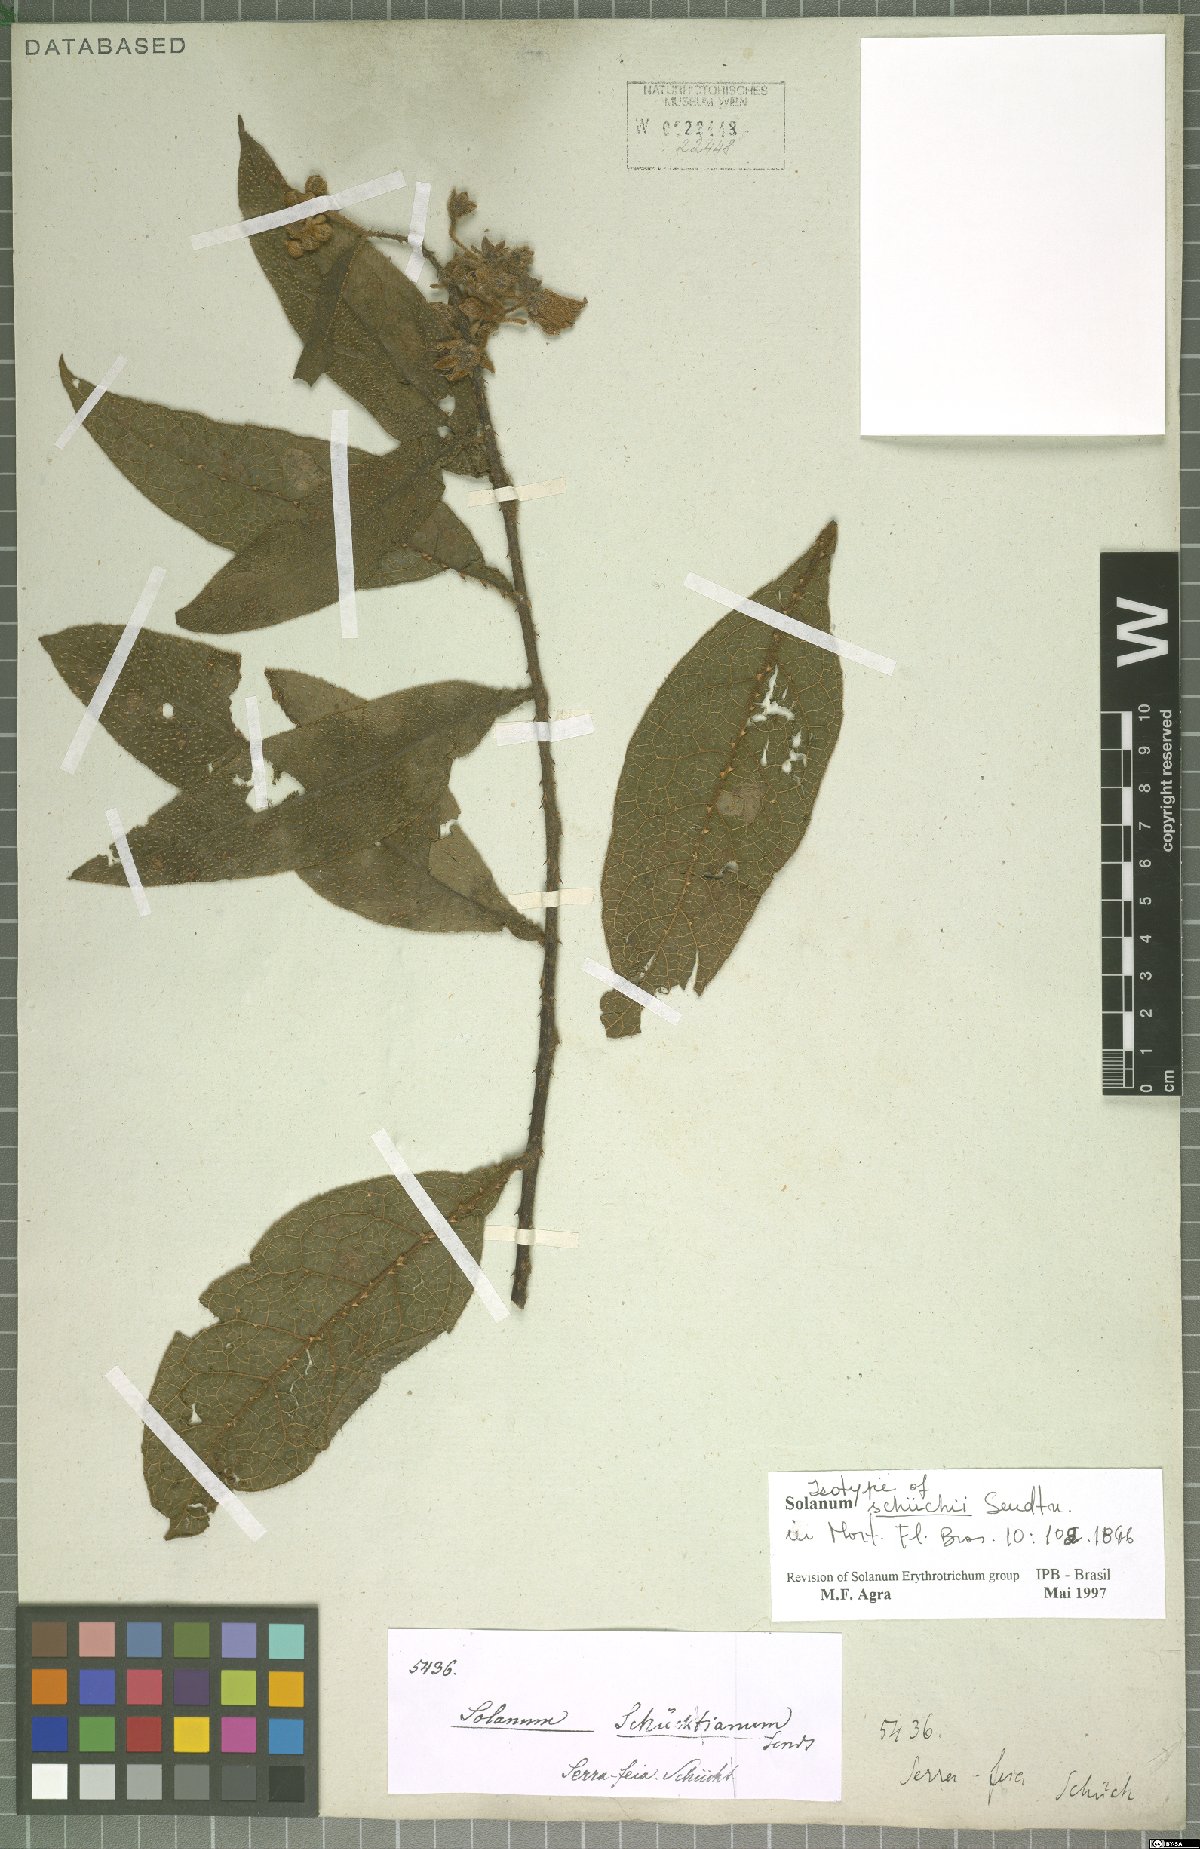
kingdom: Plantae
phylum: Tracheophyta
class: Magnoliopsida
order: Solanales
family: Solanaceae
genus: Solanum
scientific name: Solanum schuechii
